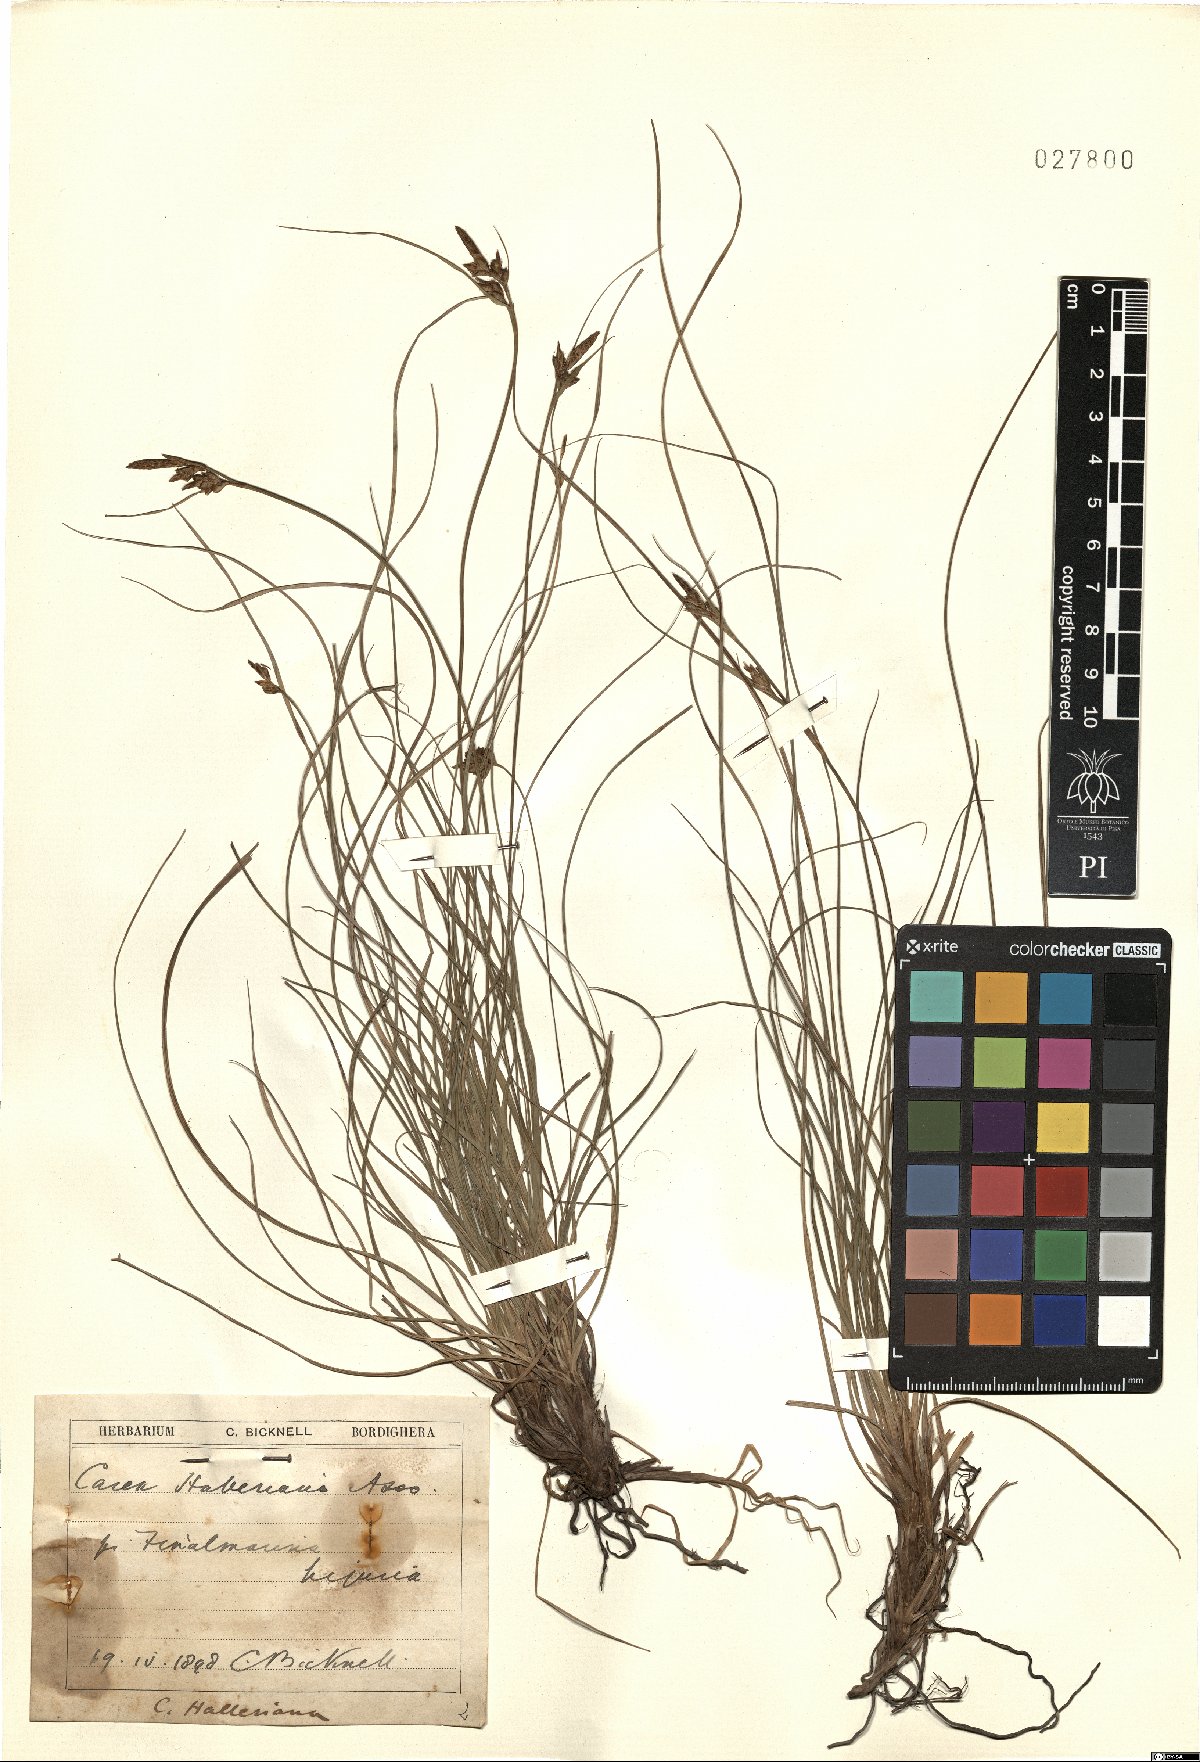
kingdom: Plantae
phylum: Tracheophyta
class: Liliopsida
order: Poales
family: Cyperaceae
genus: Carex
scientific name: Carex halleriana
